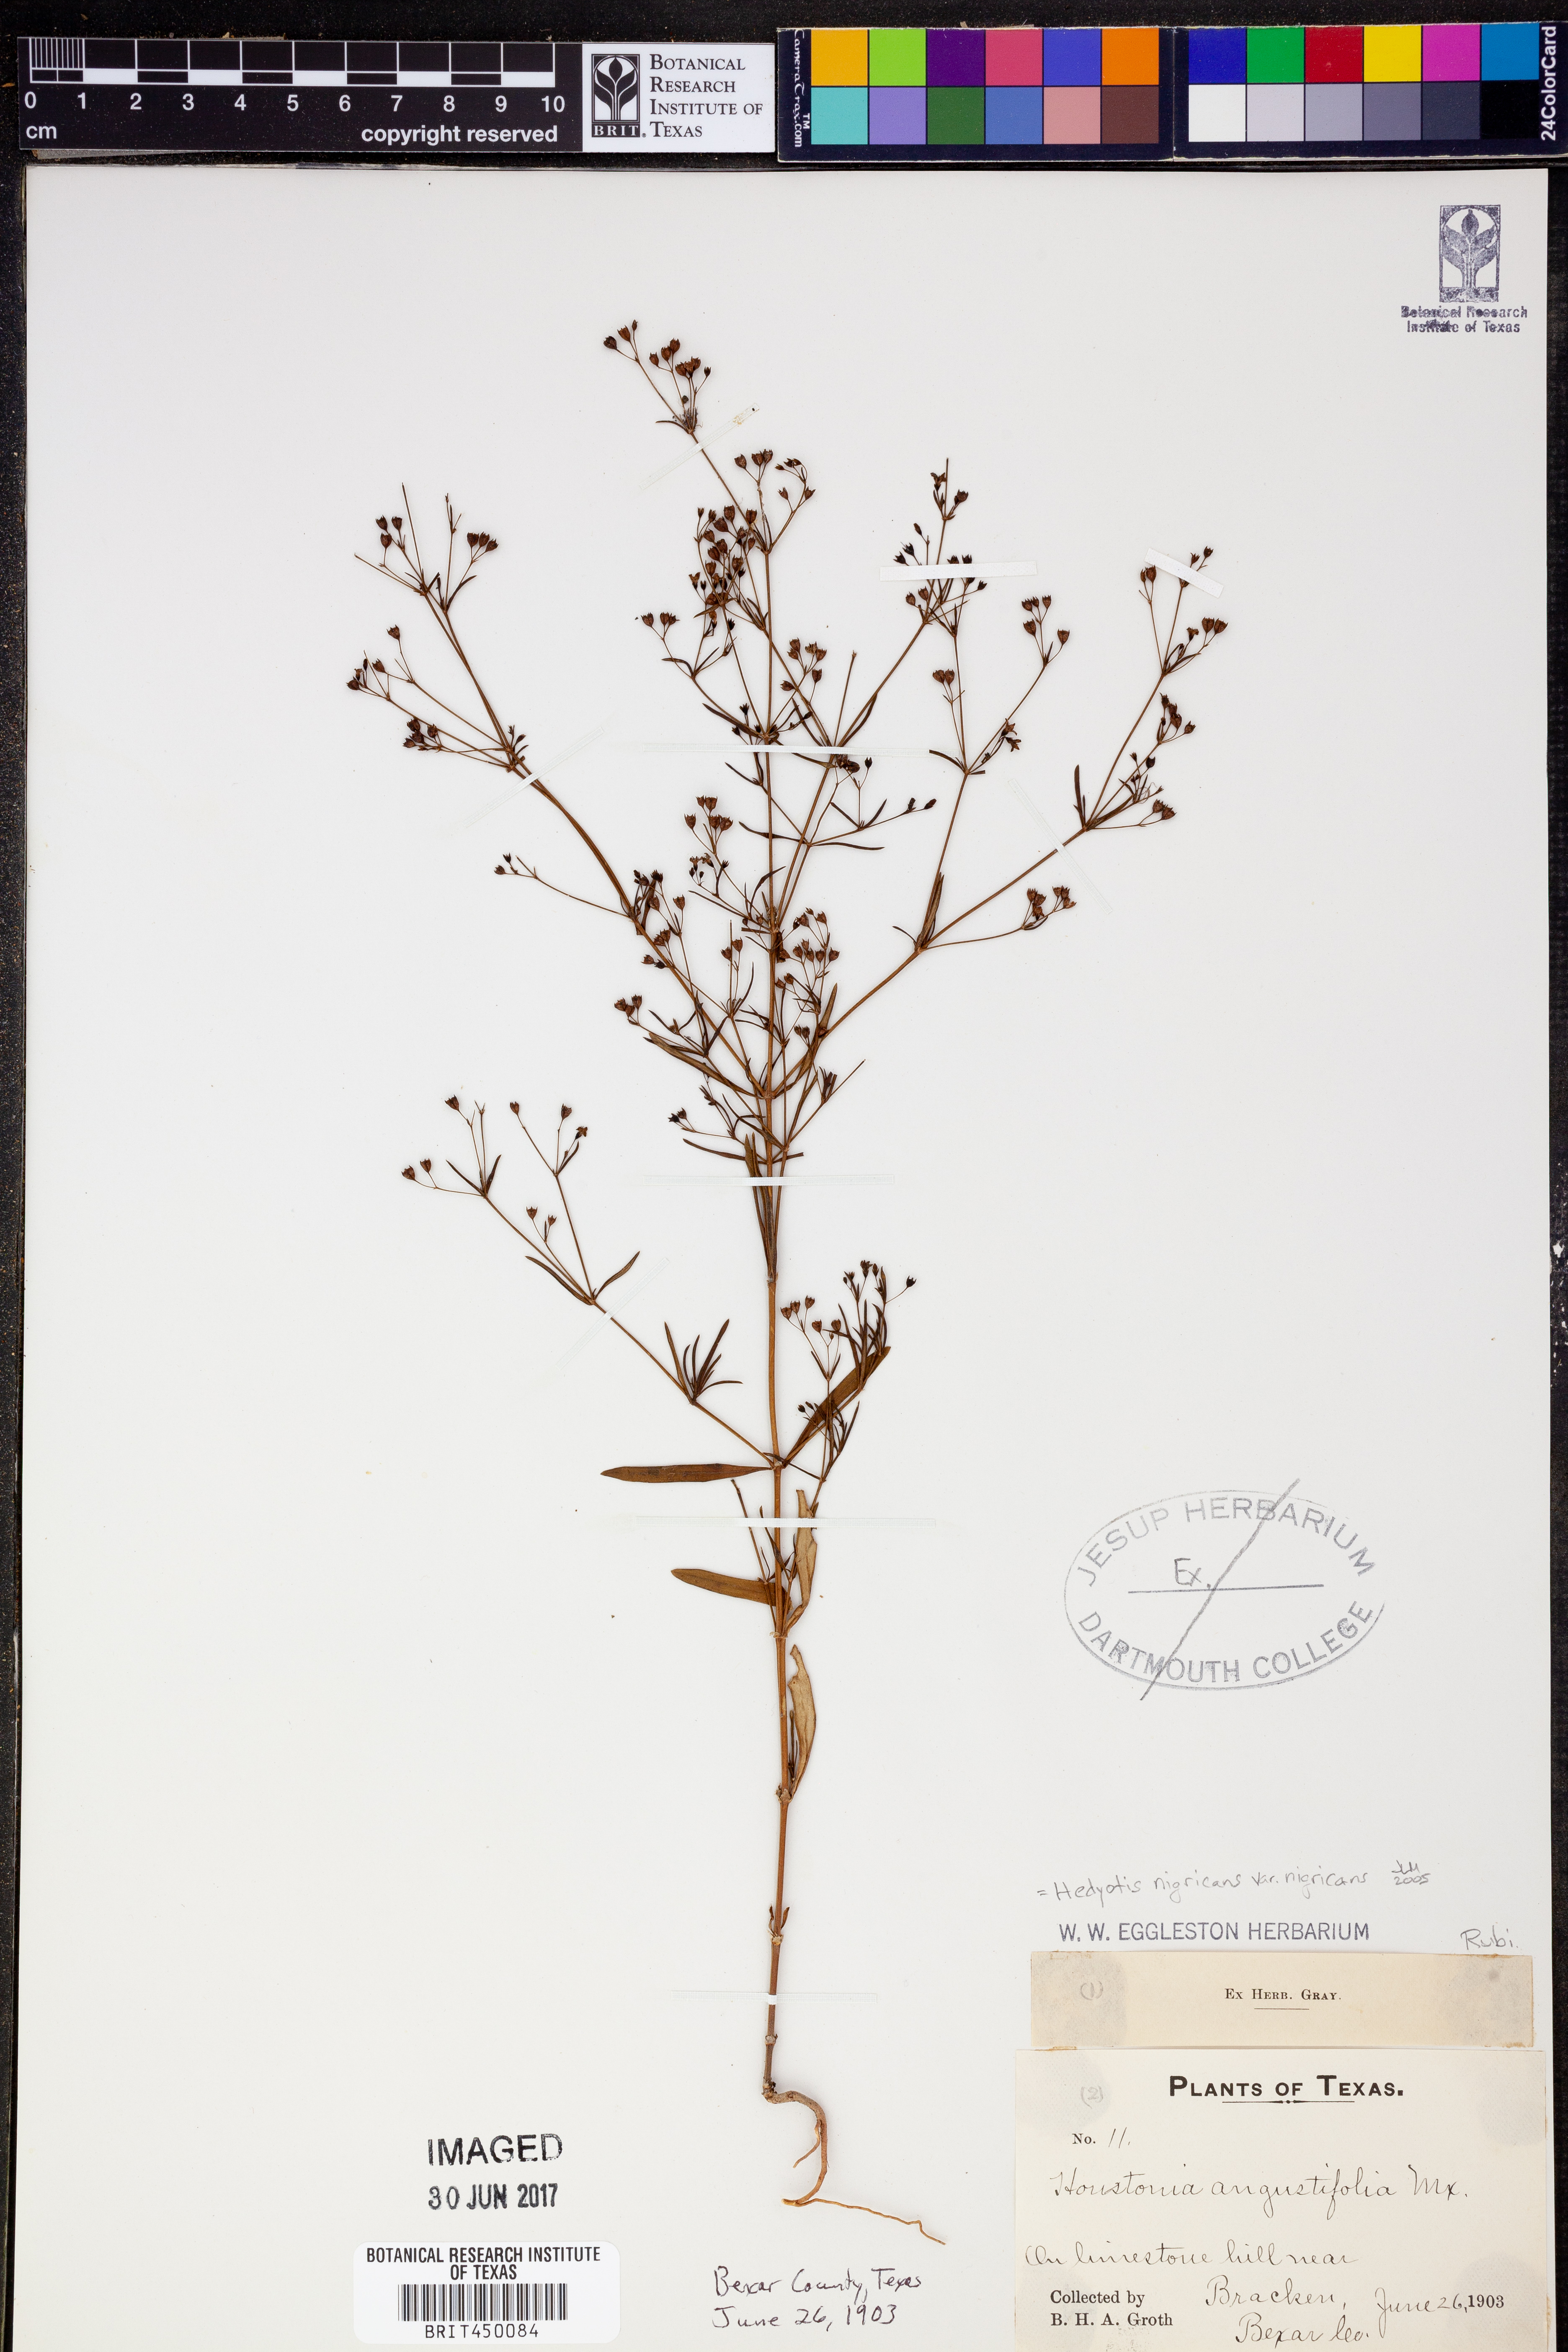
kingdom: Plantae
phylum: Tracheophyta
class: Magnoliopsida
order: Gentianales
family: Rubiaceae
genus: Stenaria
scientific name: Stenaria nigricans
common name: Diamondflowers
